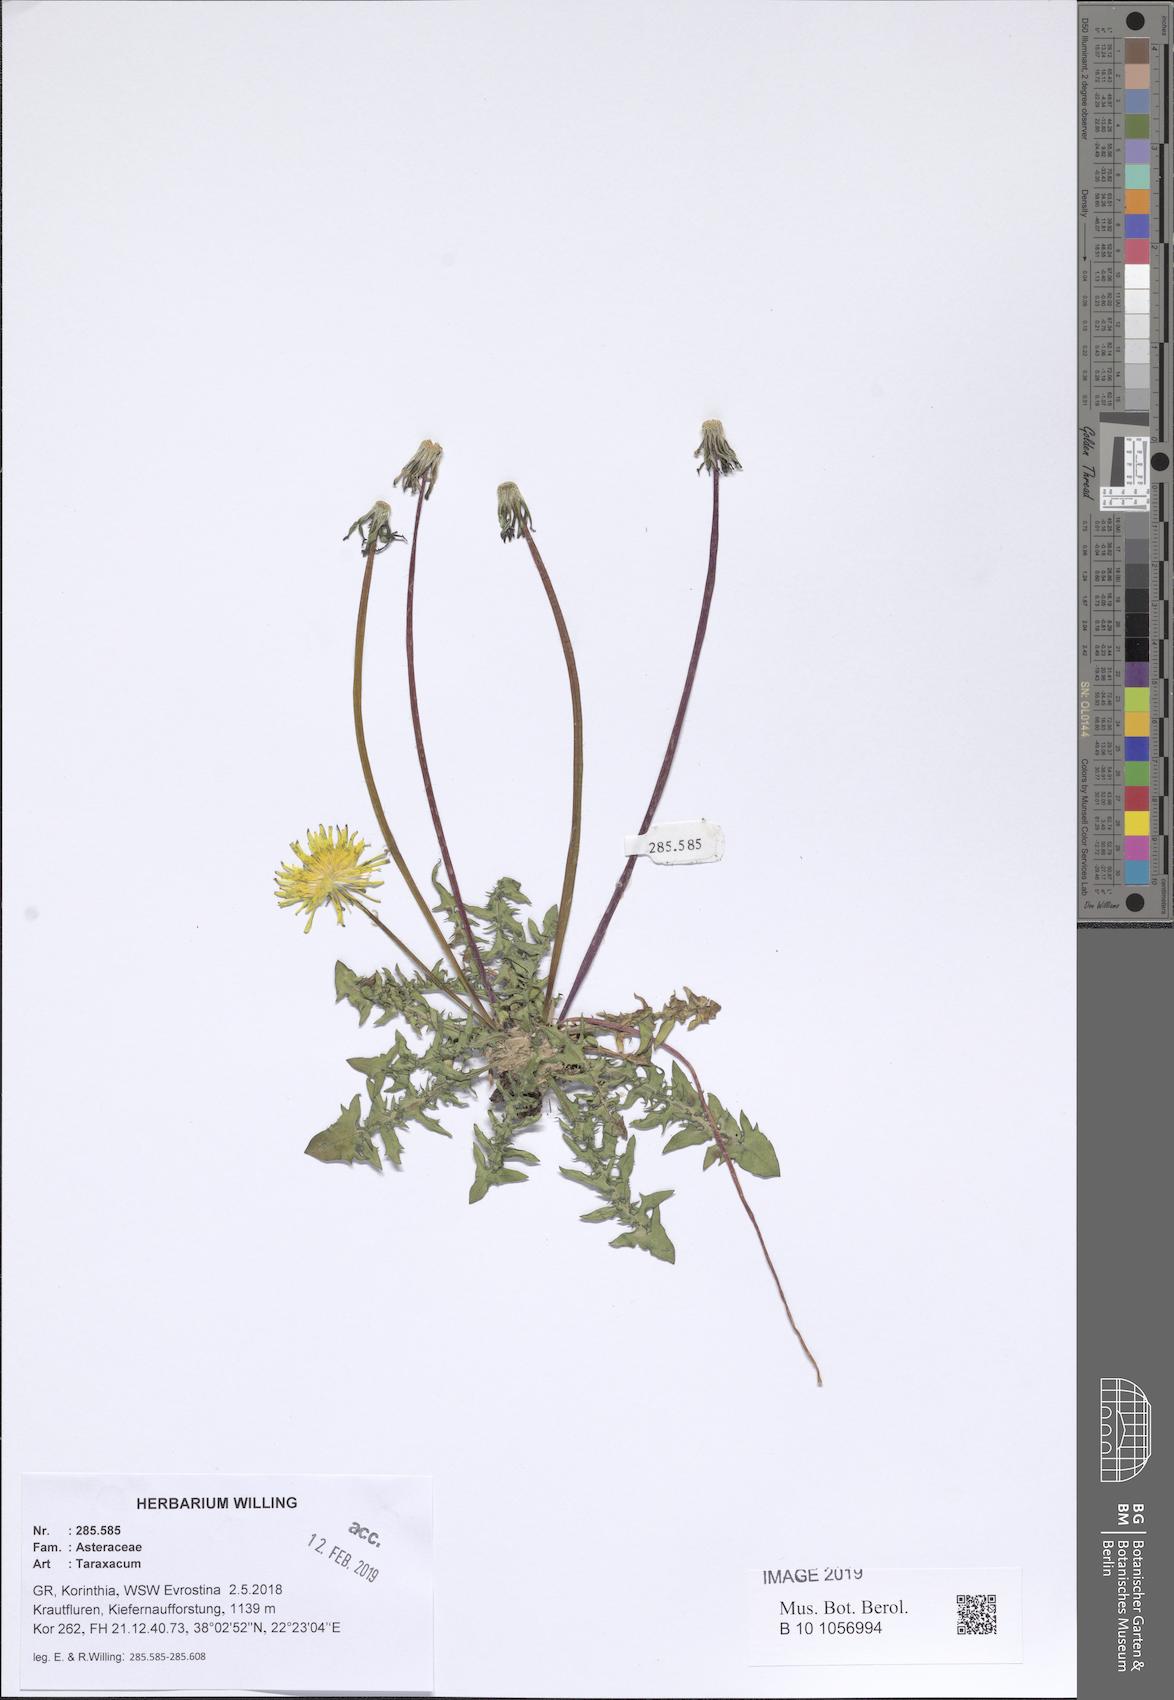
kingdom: Plantae
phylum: Tracheophyta
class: Magnoliopsida
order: Asterales
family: Asteraceae
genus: Taraxacum
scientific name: Taraxacum
